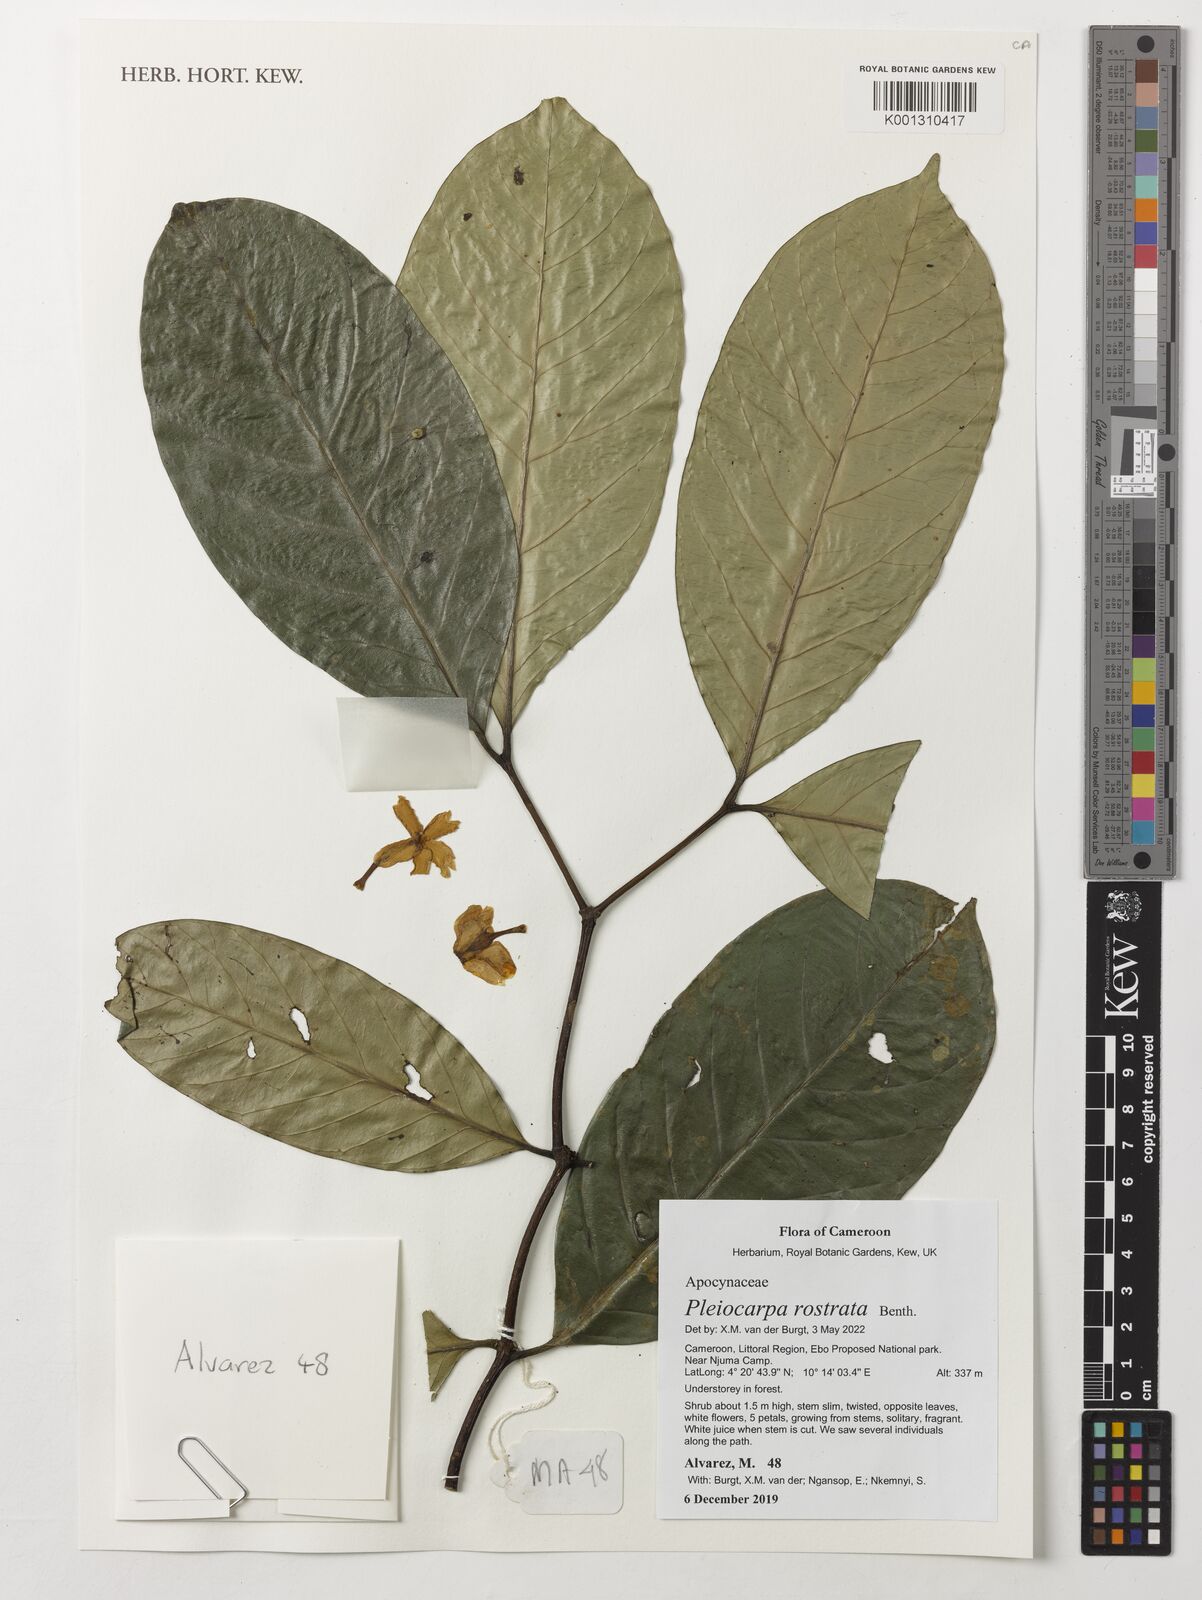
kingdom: Plantae
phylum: Tracheophyta
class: Magnoliopsida
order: Gentianales
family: Apocynaceae
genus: Pleiocarpa
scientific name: Pleiocarpa rostrata
